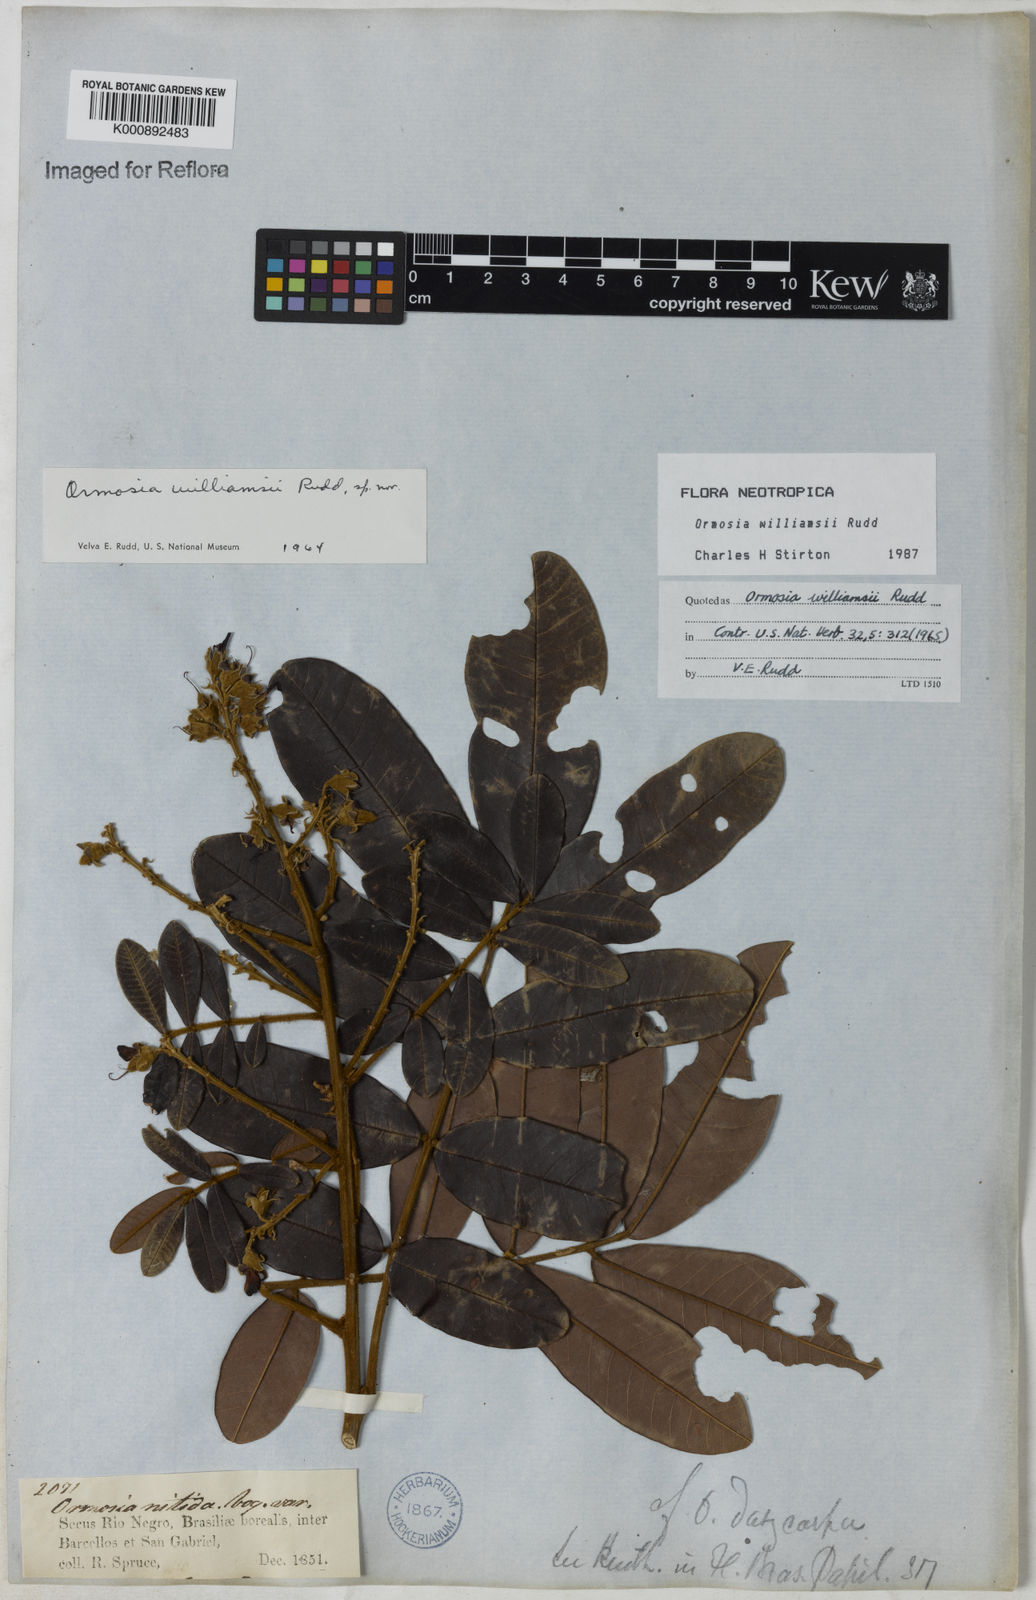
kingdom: Plantae
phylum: Tracheophyta
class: Magnoliopsida
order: Fabales
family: Fabaceae
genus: Ormosia
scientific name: Ormosia williamsii
